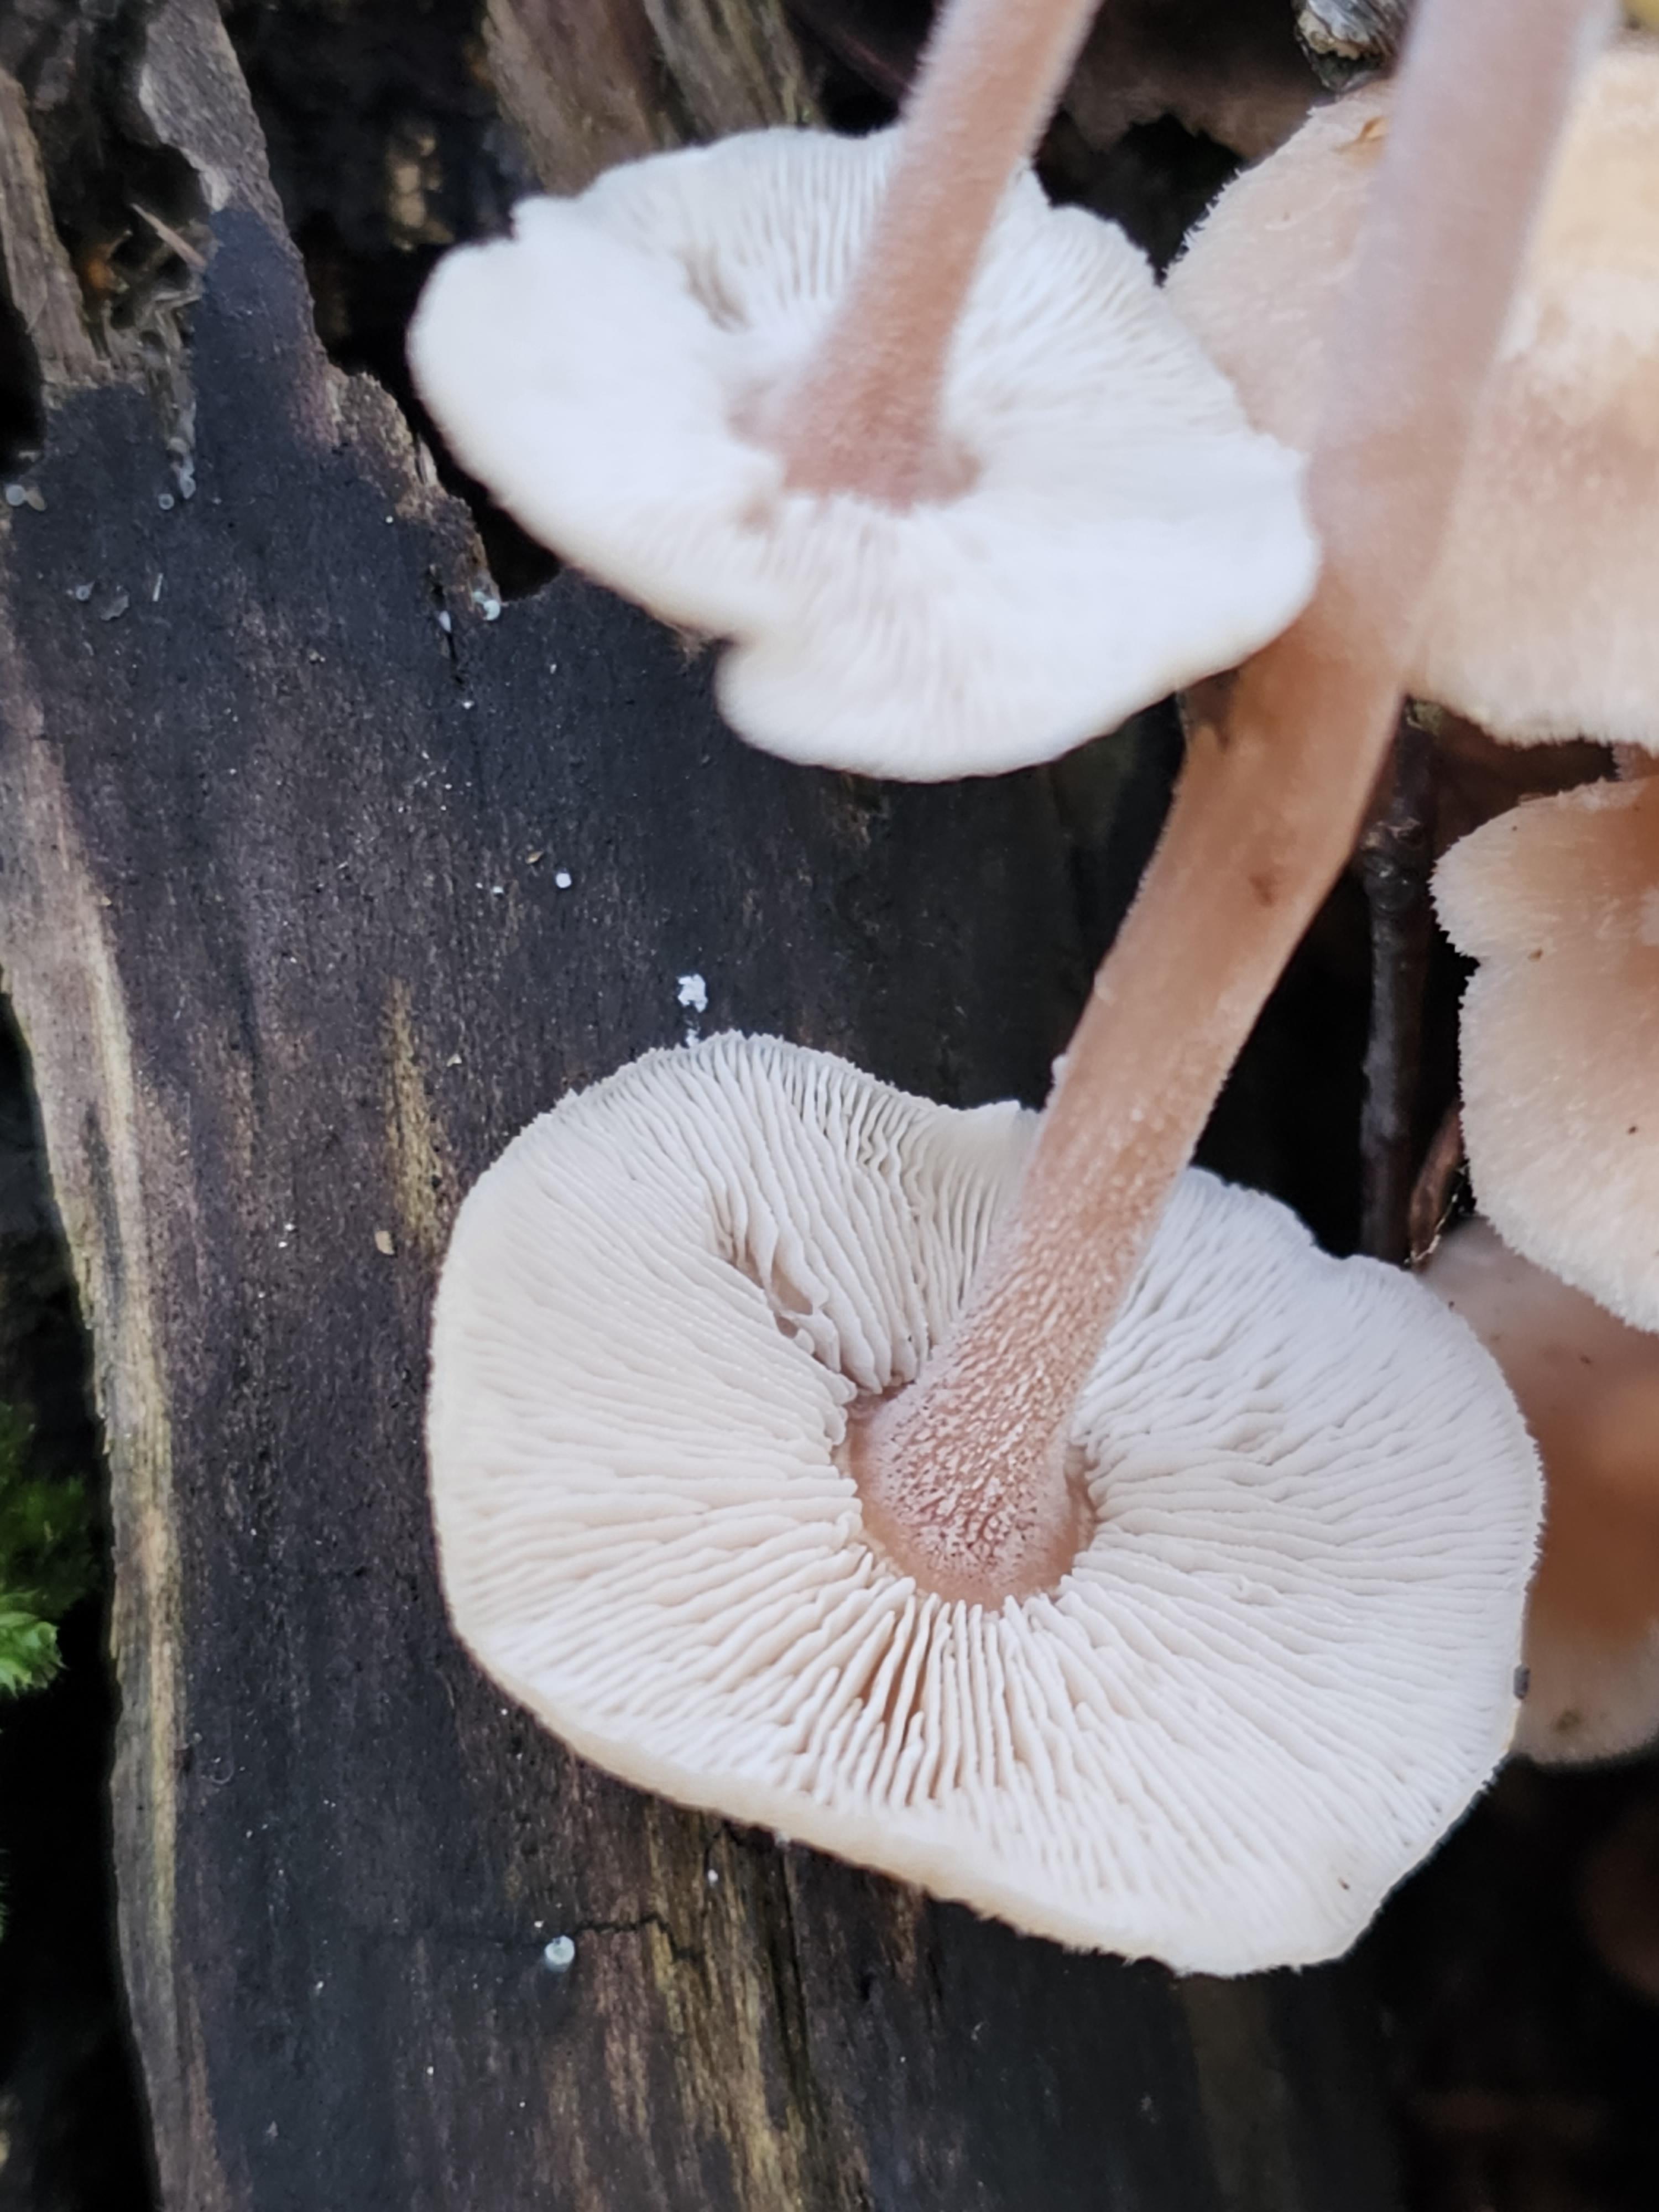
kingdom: Fungi
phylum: Basidiomycota
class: Agaricomycetes
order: Agaricales
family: Omphalotaceae
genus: Collybiopsis
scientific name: Collybiopsis confluens
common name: knippe-fladhat
